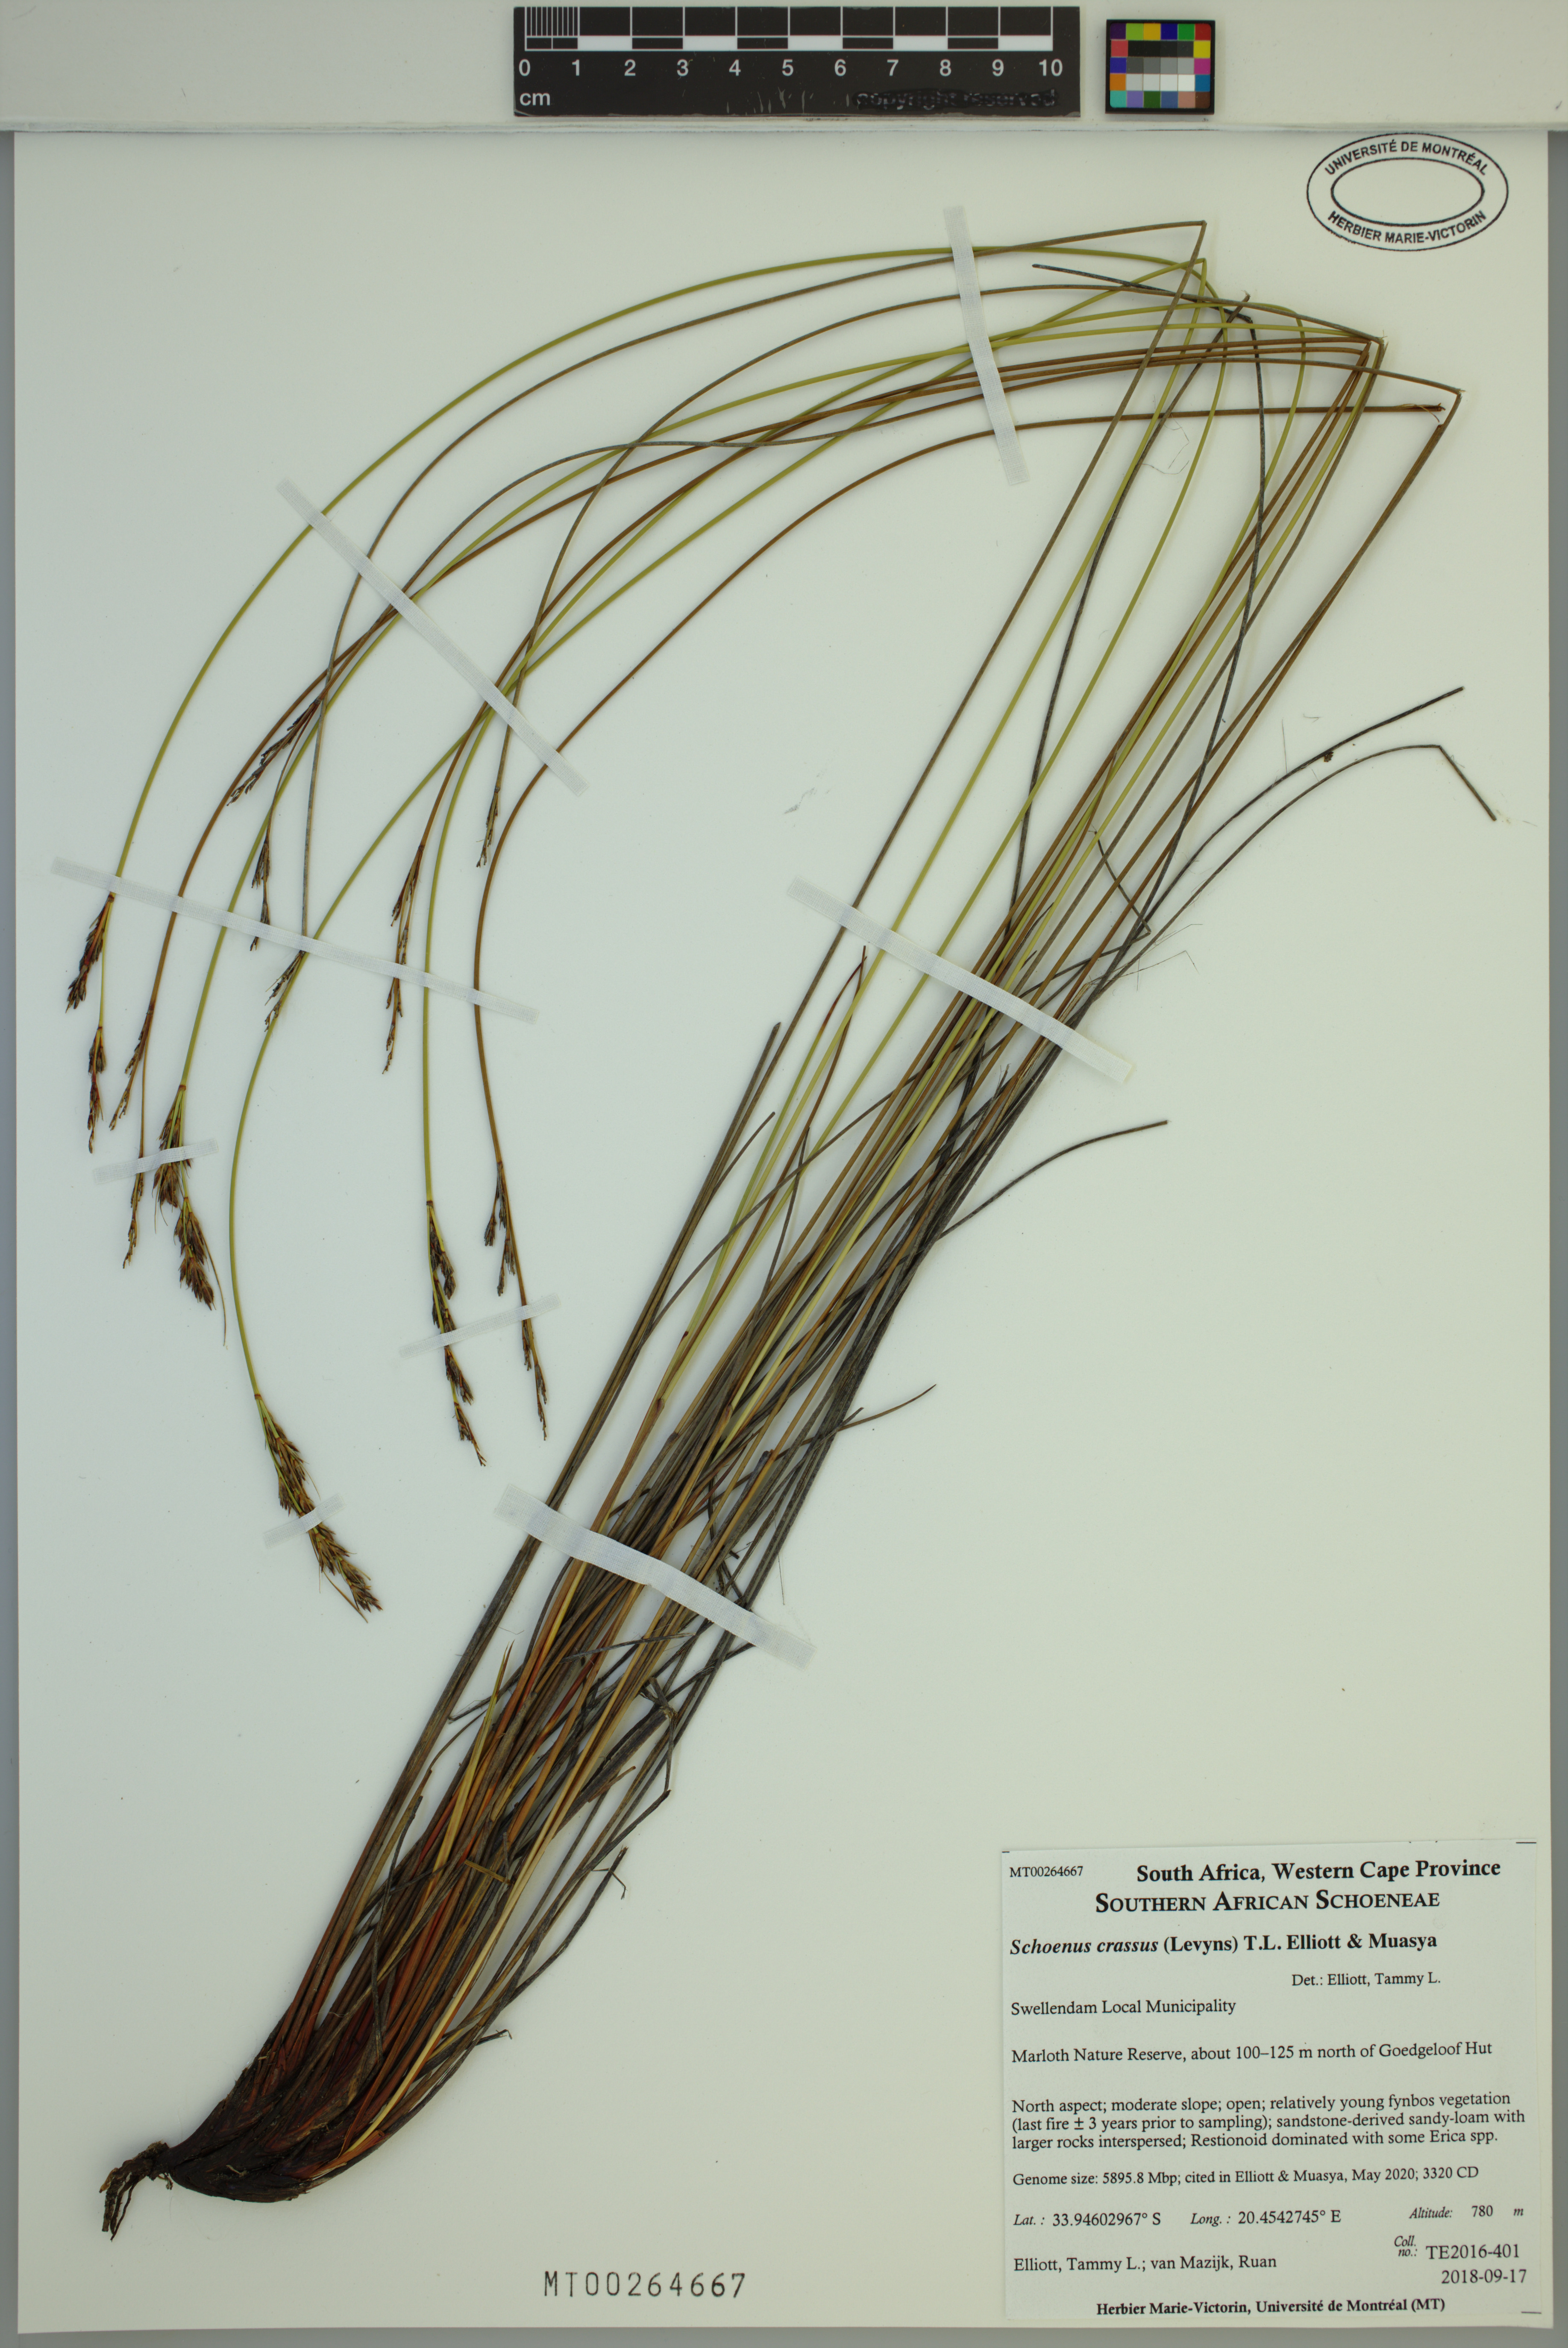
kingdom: Plantae
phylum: Tracheophyta
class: Liliopsida
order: Poales
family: Cyperaceae
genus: Schoenus
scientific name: Schoenus crassus
